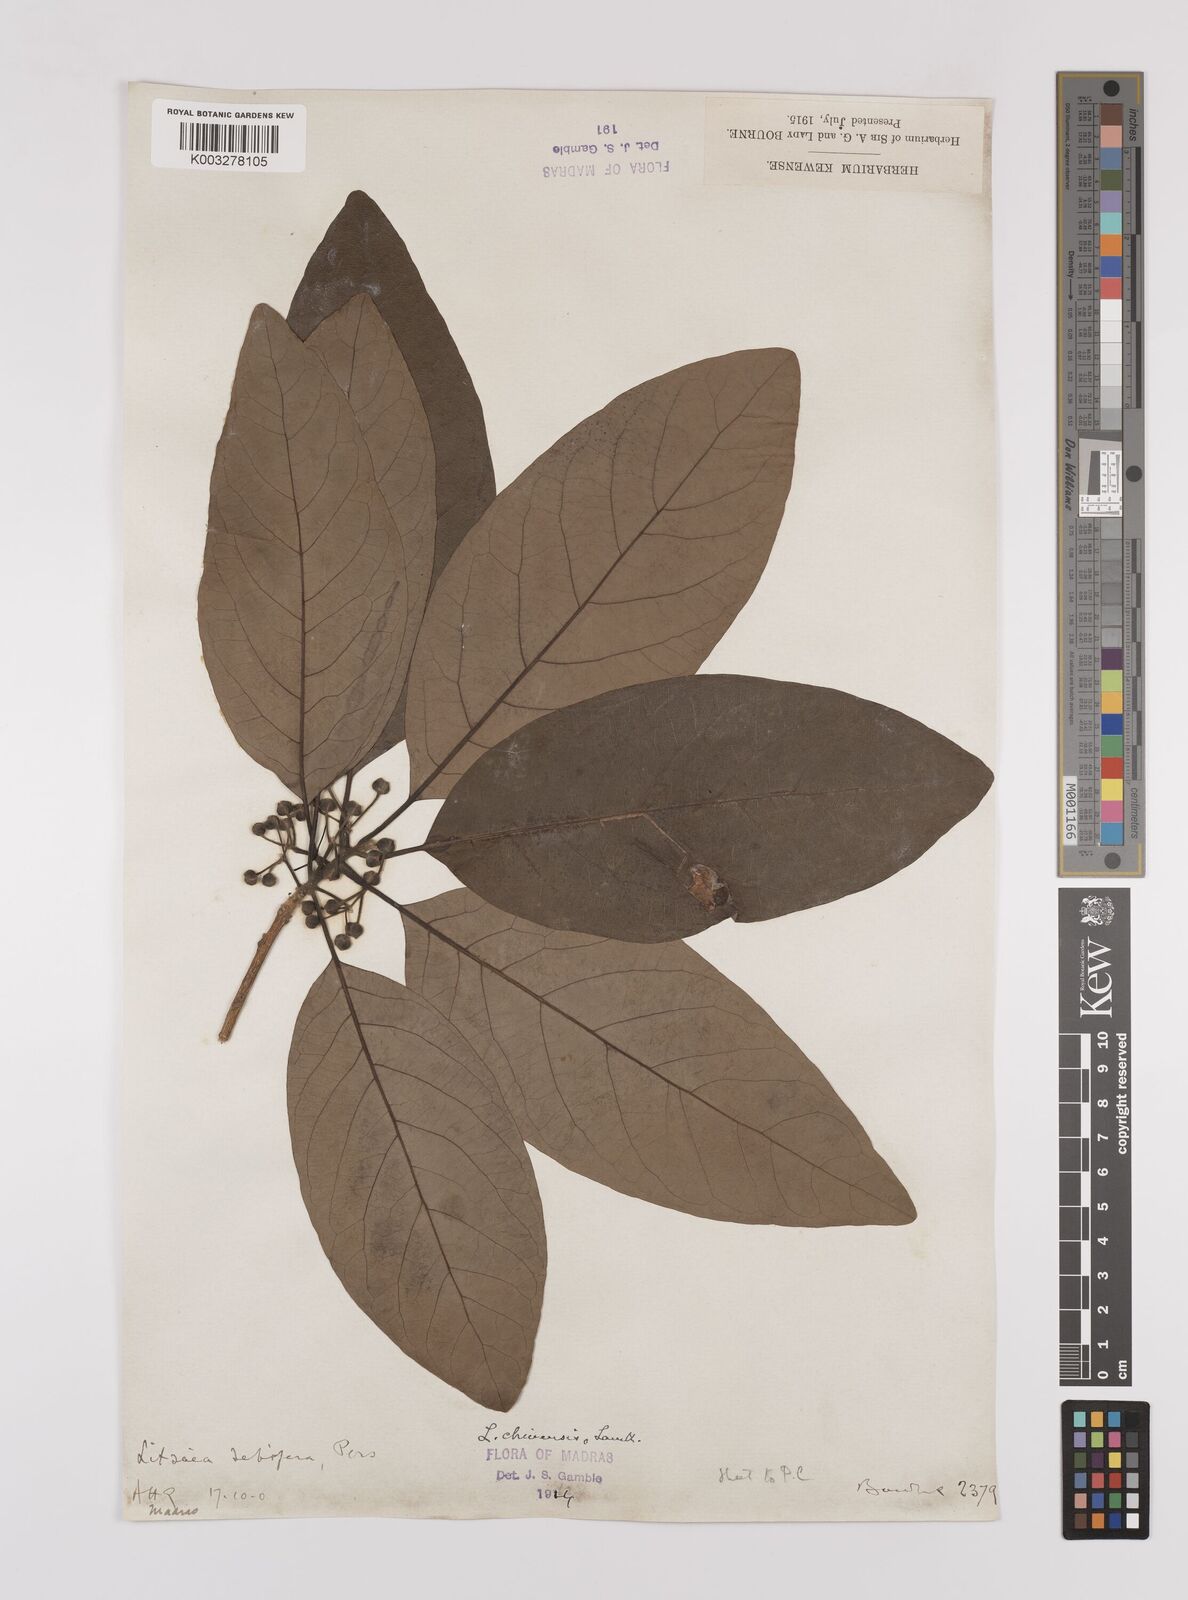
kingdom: Plantae
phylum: Tracheophyta
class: Magnoliopsida
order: Laurales
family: Lauraceae
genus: Litsea
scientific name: Litsea
